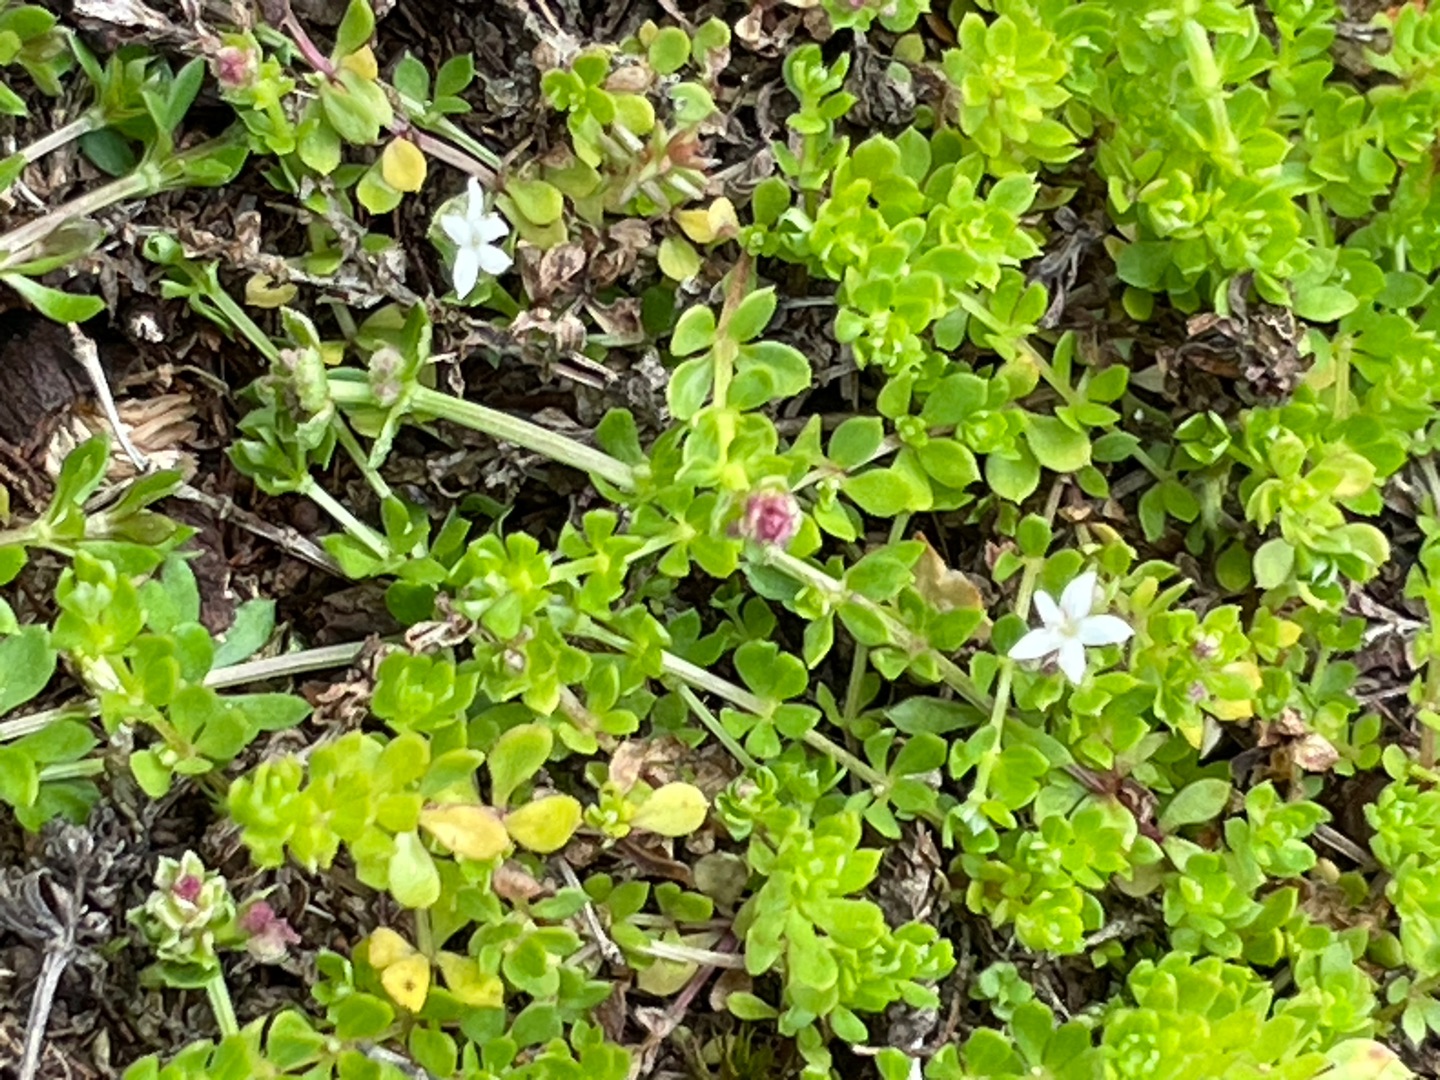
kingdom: Plantae
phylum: Tracheophyta
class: Magnoliopsida
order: Gentianales
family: Rubiaceae
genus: Galium
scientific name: Galium saxatile
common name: Lyng-snerre
